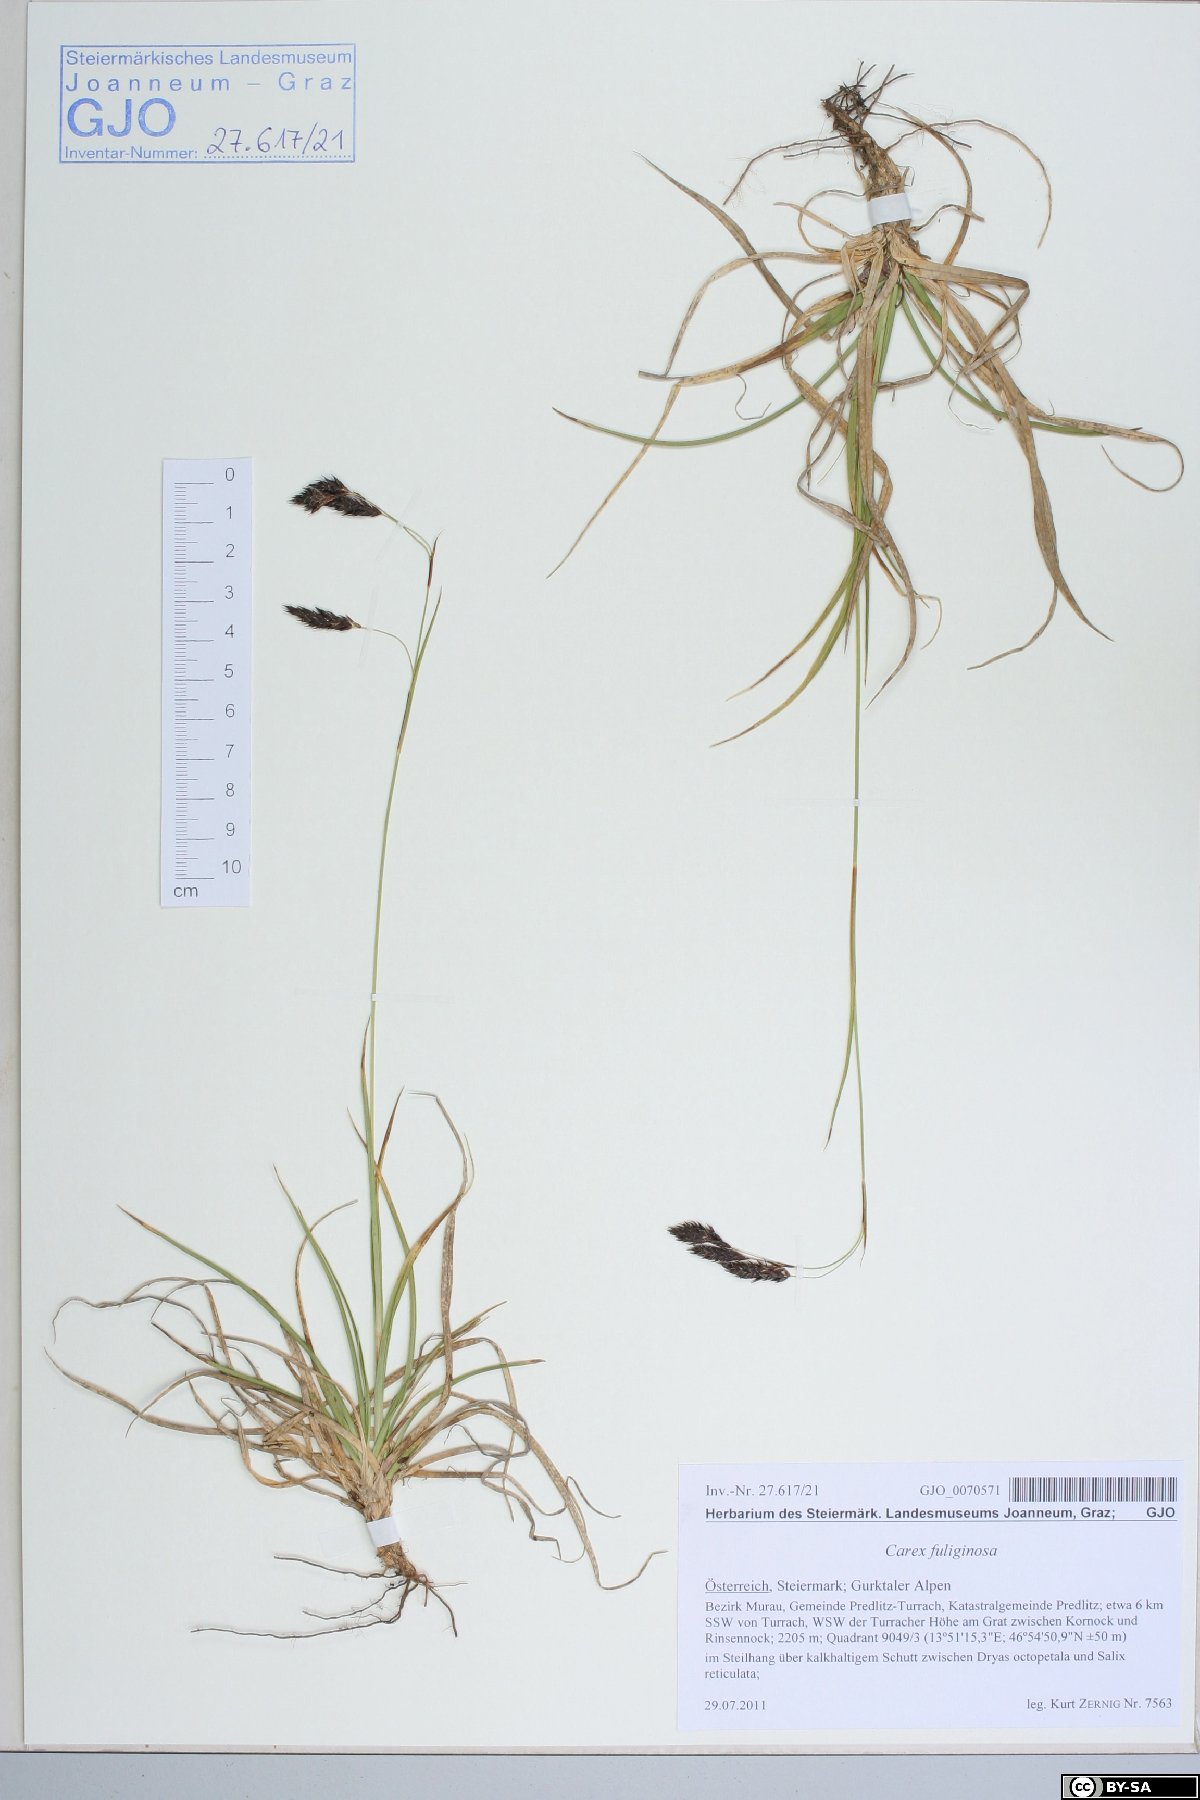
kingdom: Plantae
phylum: Tracheophyta
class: Liliopsida
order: Poales
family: Cyperaceae
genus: Carex
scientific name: Carex fuliginosa
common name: Few-flowered sedge
